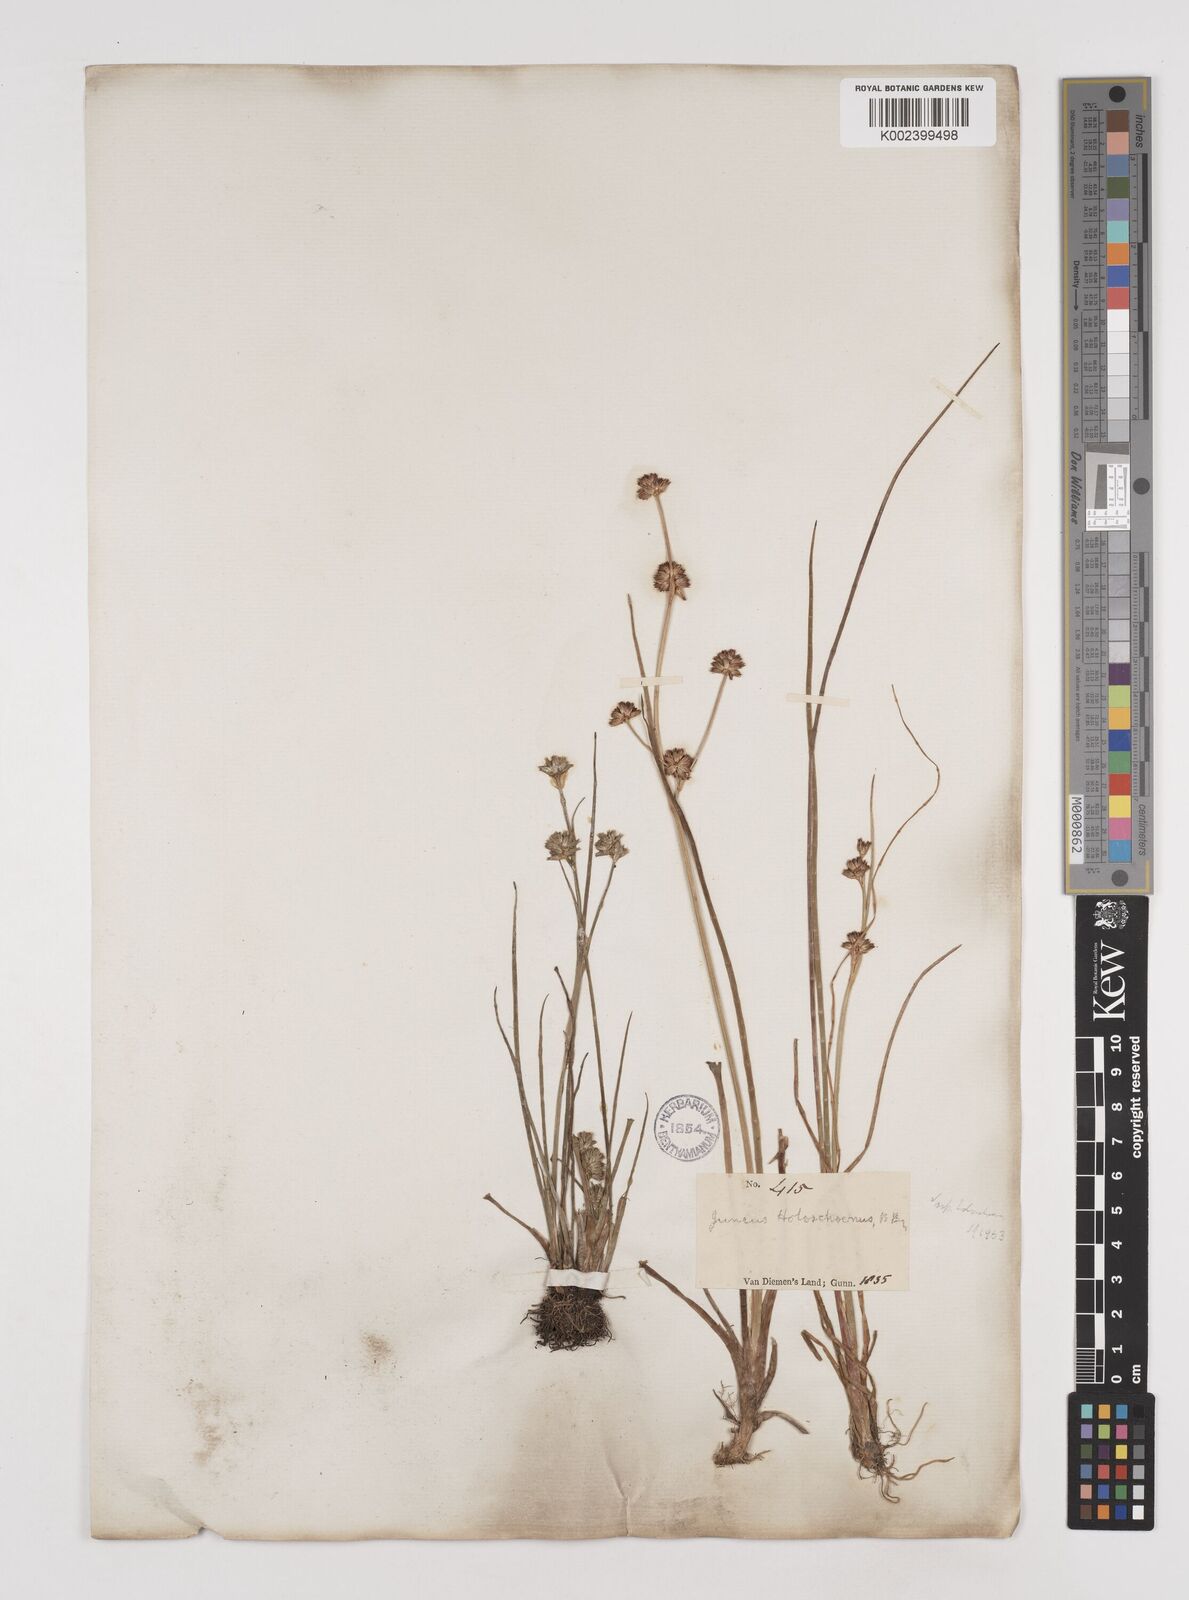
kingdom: Plantae
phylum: Tracheophyta
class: Liliopsida
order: Poales
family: Juncaceae
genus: Juncus
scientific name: Juncus holoschoenus
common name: Joint-leaf rush
